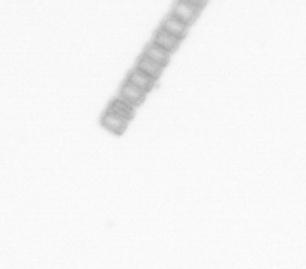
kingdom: Chromista
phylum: Ochrophyta
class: Bacillariophyceae
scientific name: Bacillariophyceae
